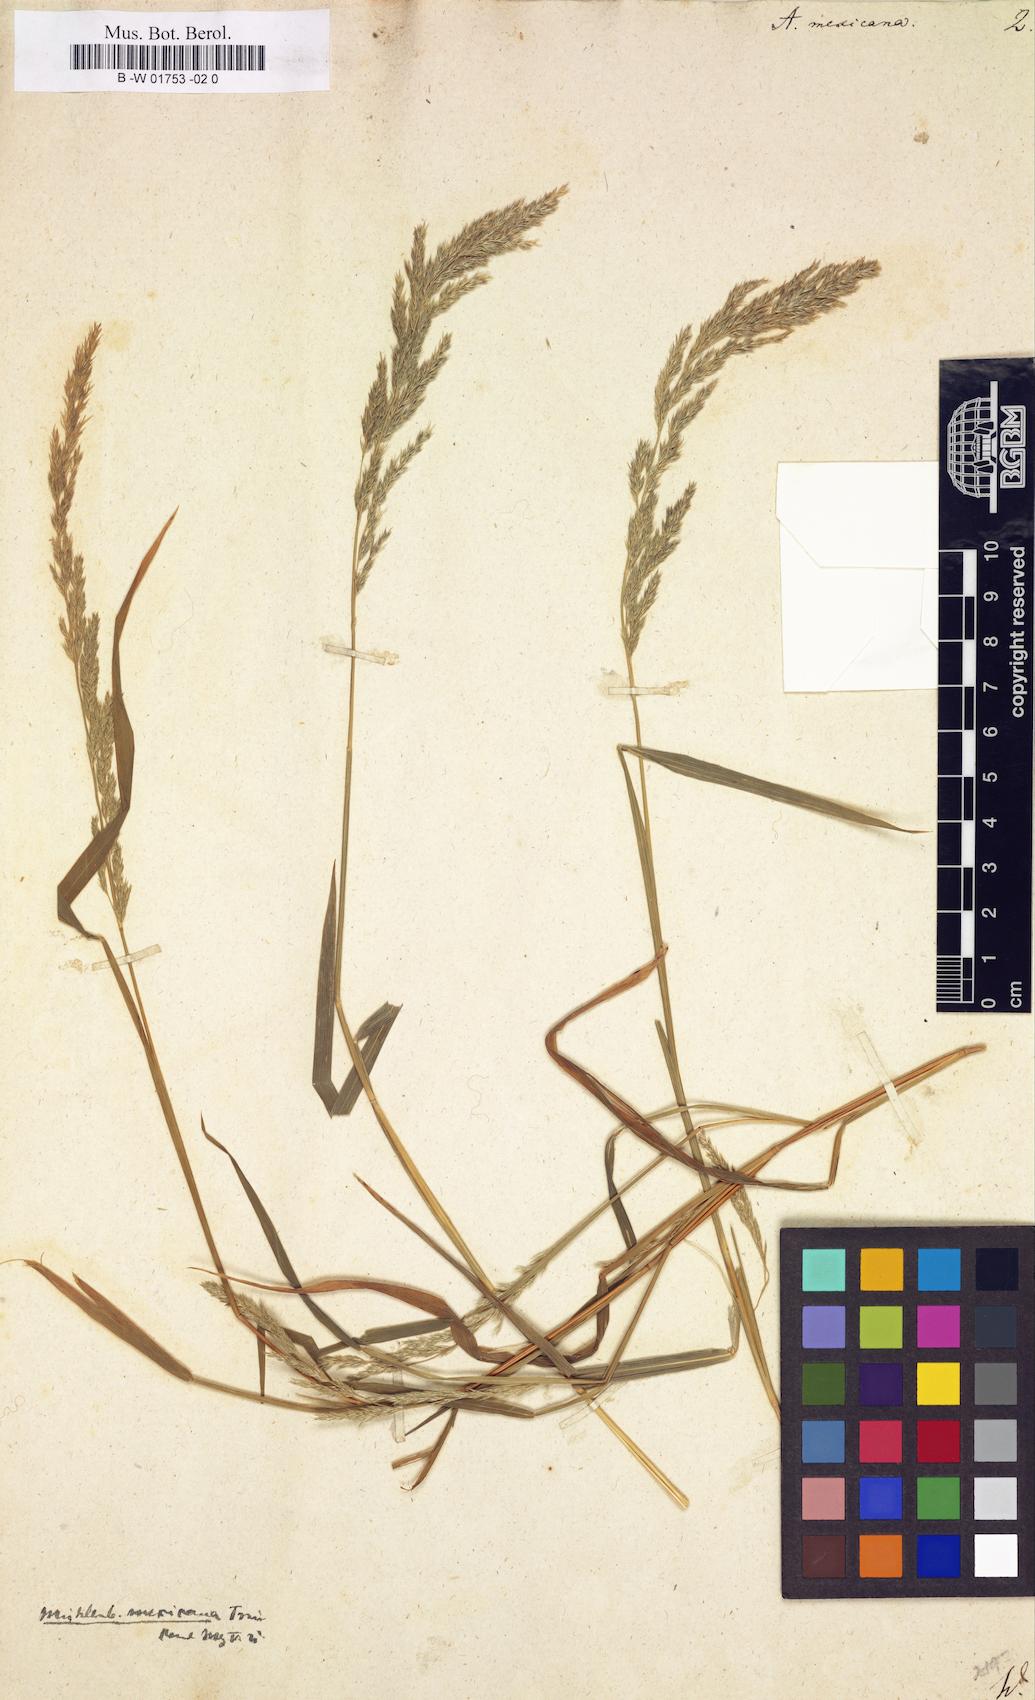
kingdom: Plantae
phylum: Tracheophyta
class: Liliopsida
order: Poales
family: Poaceae
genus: Agrostis
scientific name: Agrostis mexicana
